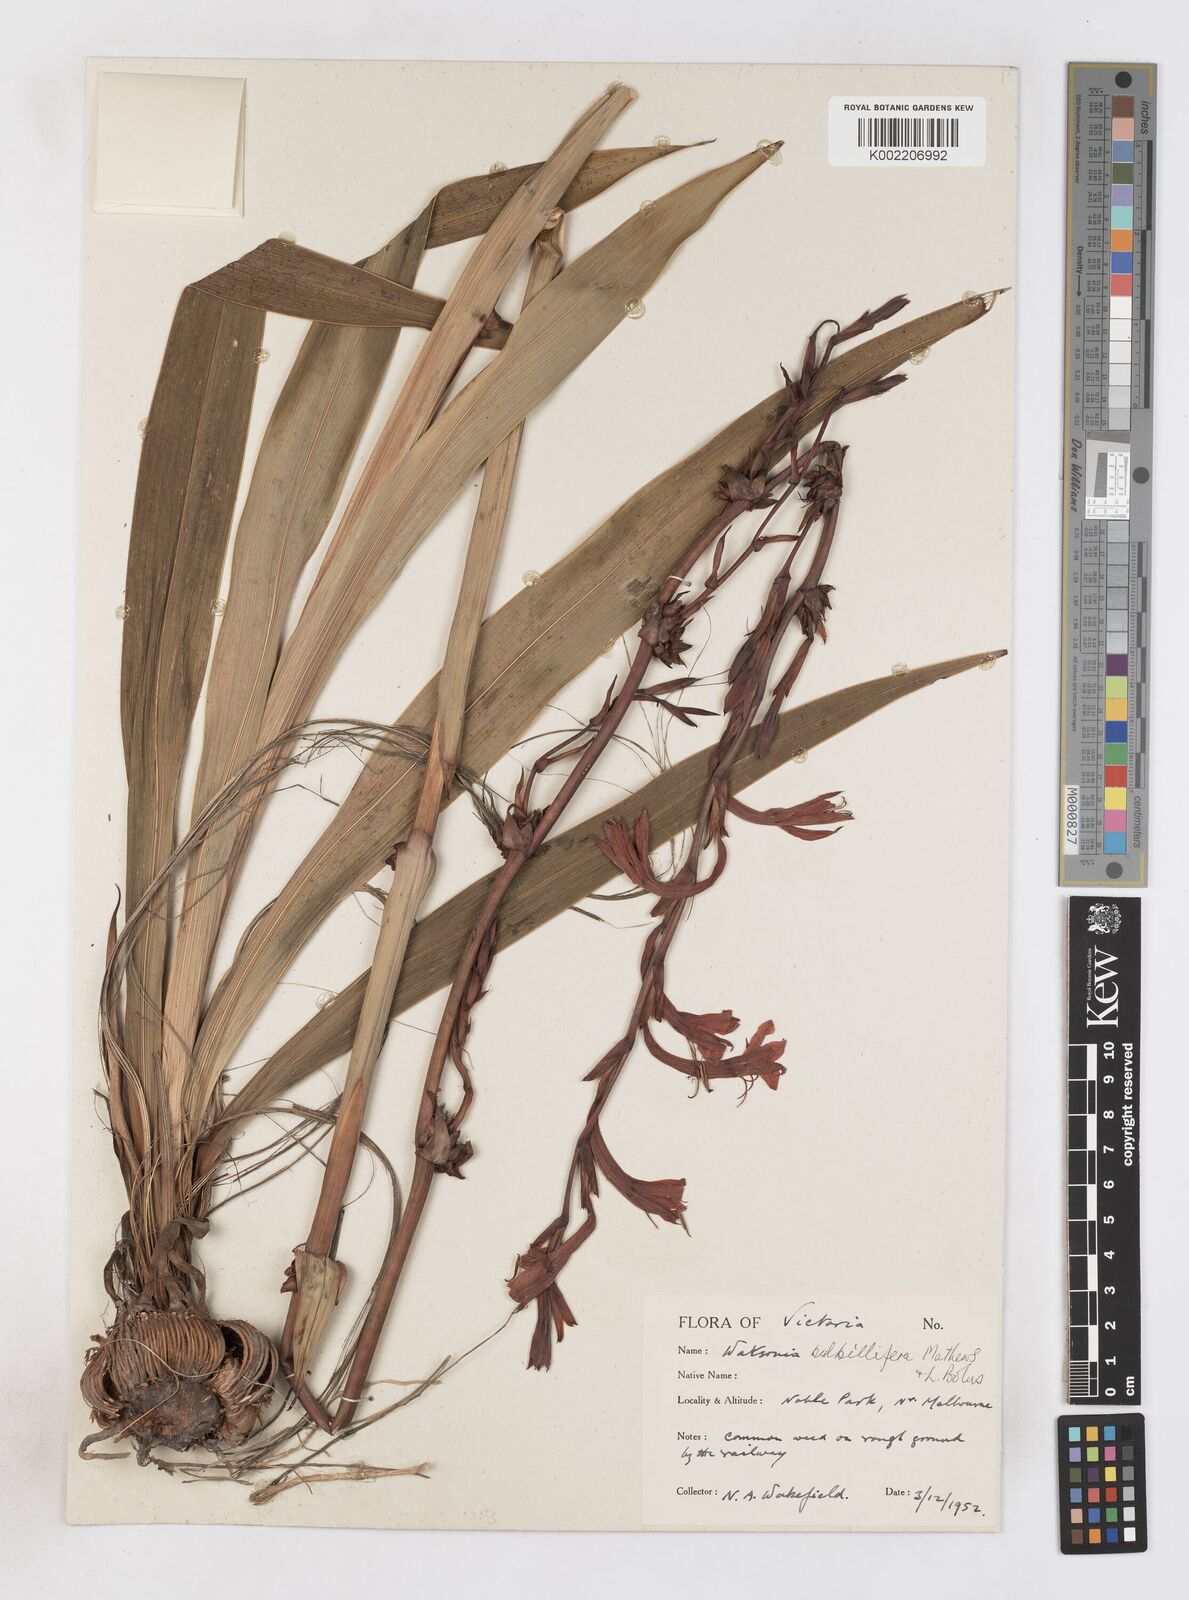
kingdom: Plantae
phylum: Tracheophyta
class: Liliopsida
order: Asparagales
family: Iridaceae
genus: Watsonia
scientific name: Watsonia meriana
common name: Bulbil bugle-lily
